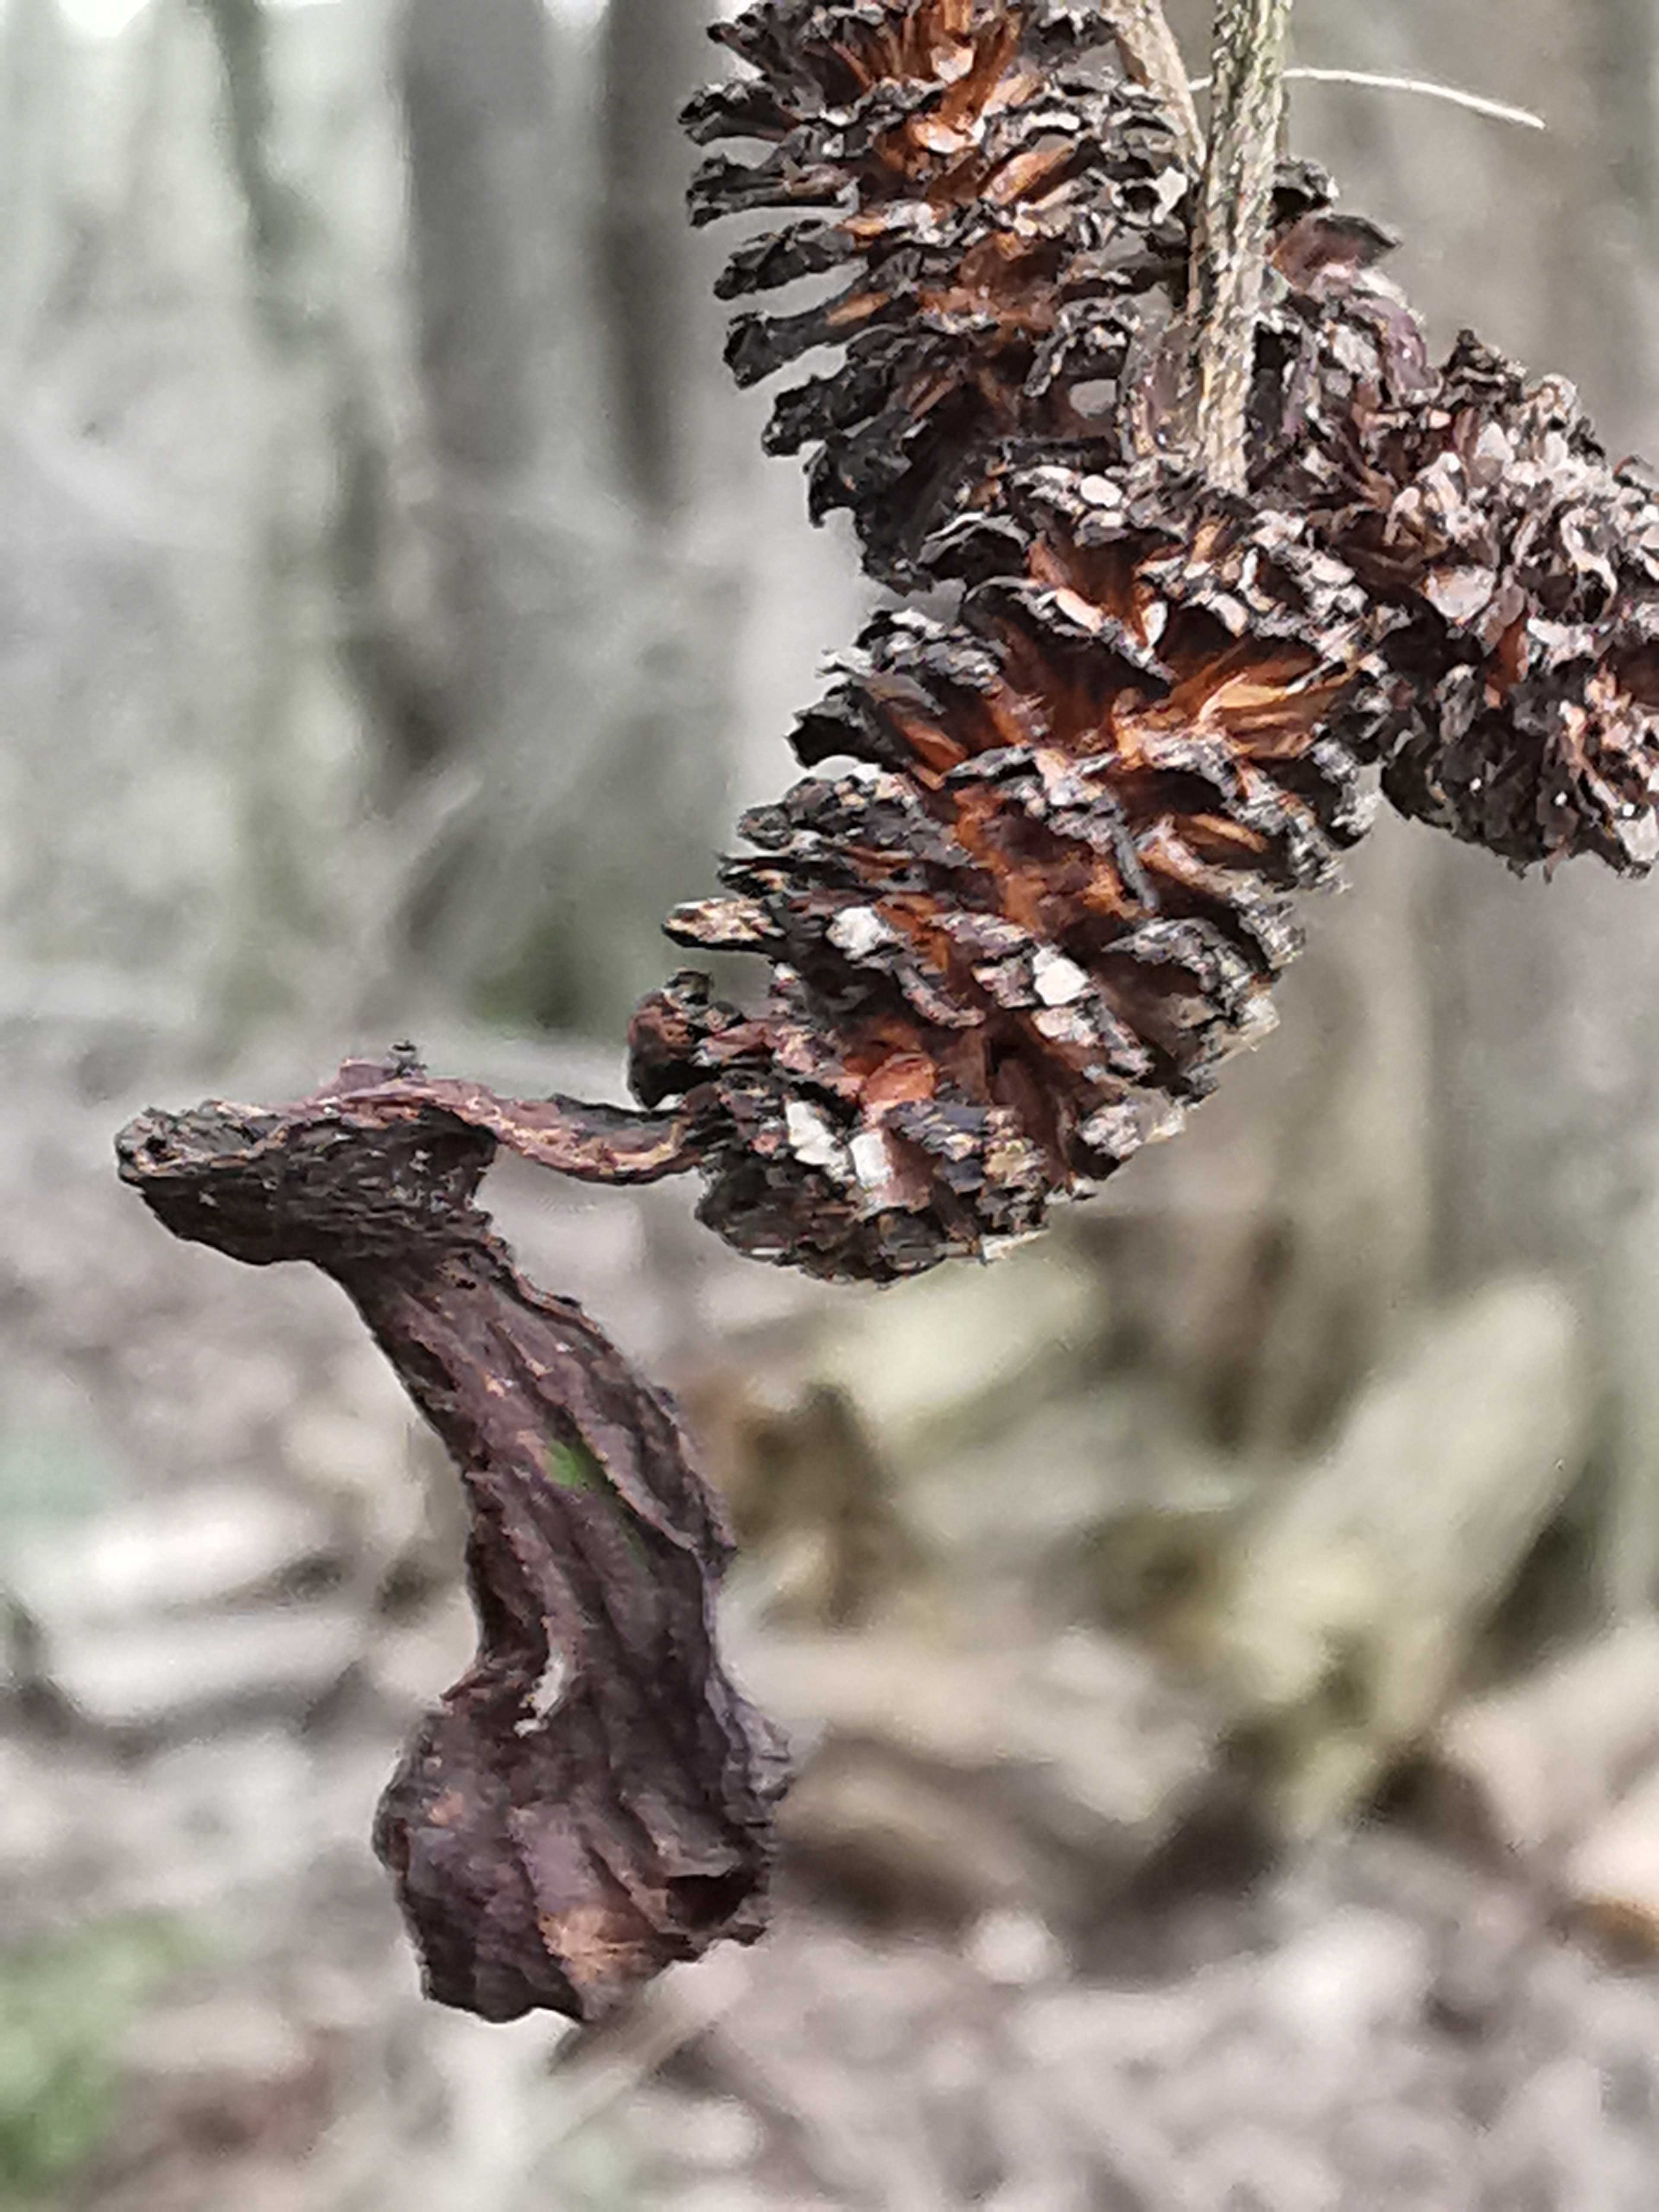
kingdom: Fungi
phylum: Ascomycota
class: Taphrinomycetes
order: Taphrinales
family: Taphrinaceae
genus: Taphrina
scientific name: Taphrina alni
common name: Alder tongue
